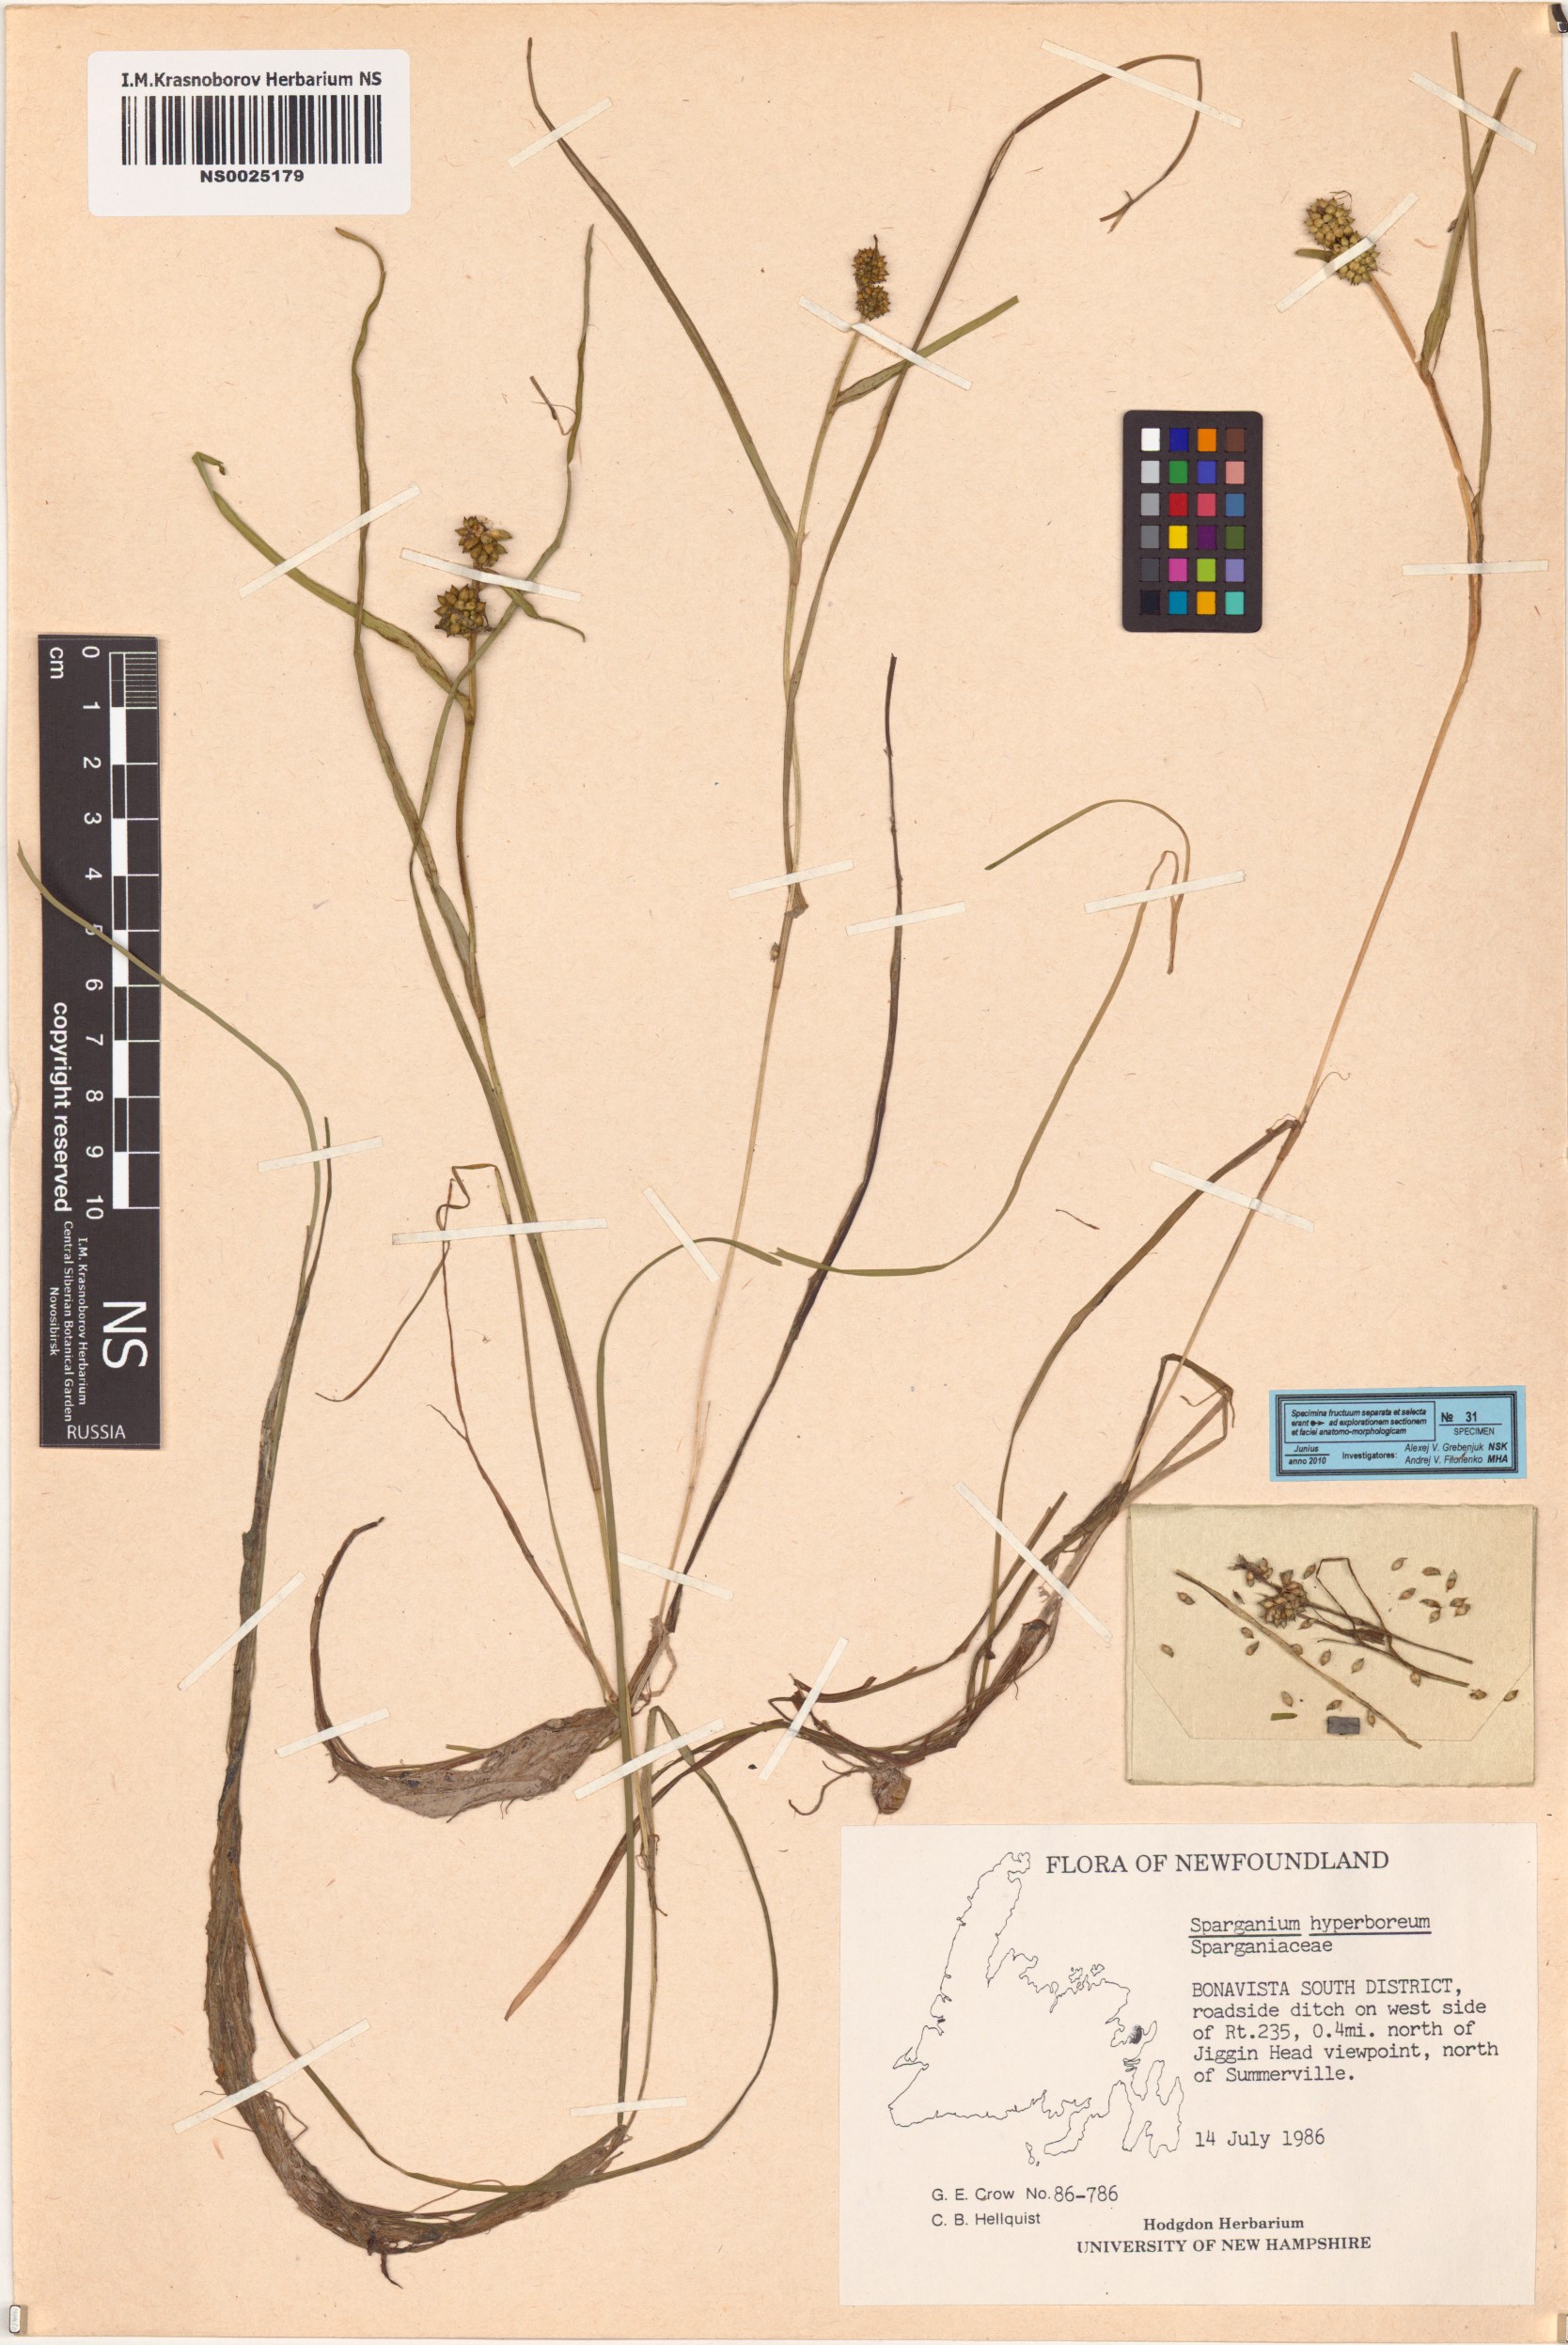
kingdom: Plantae
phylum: Tracheophyta
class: Liliopsida
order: Poales
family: Typhaceae
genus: Sparganium
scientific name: Sparganium hyperboreum
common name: Arctic burreed
